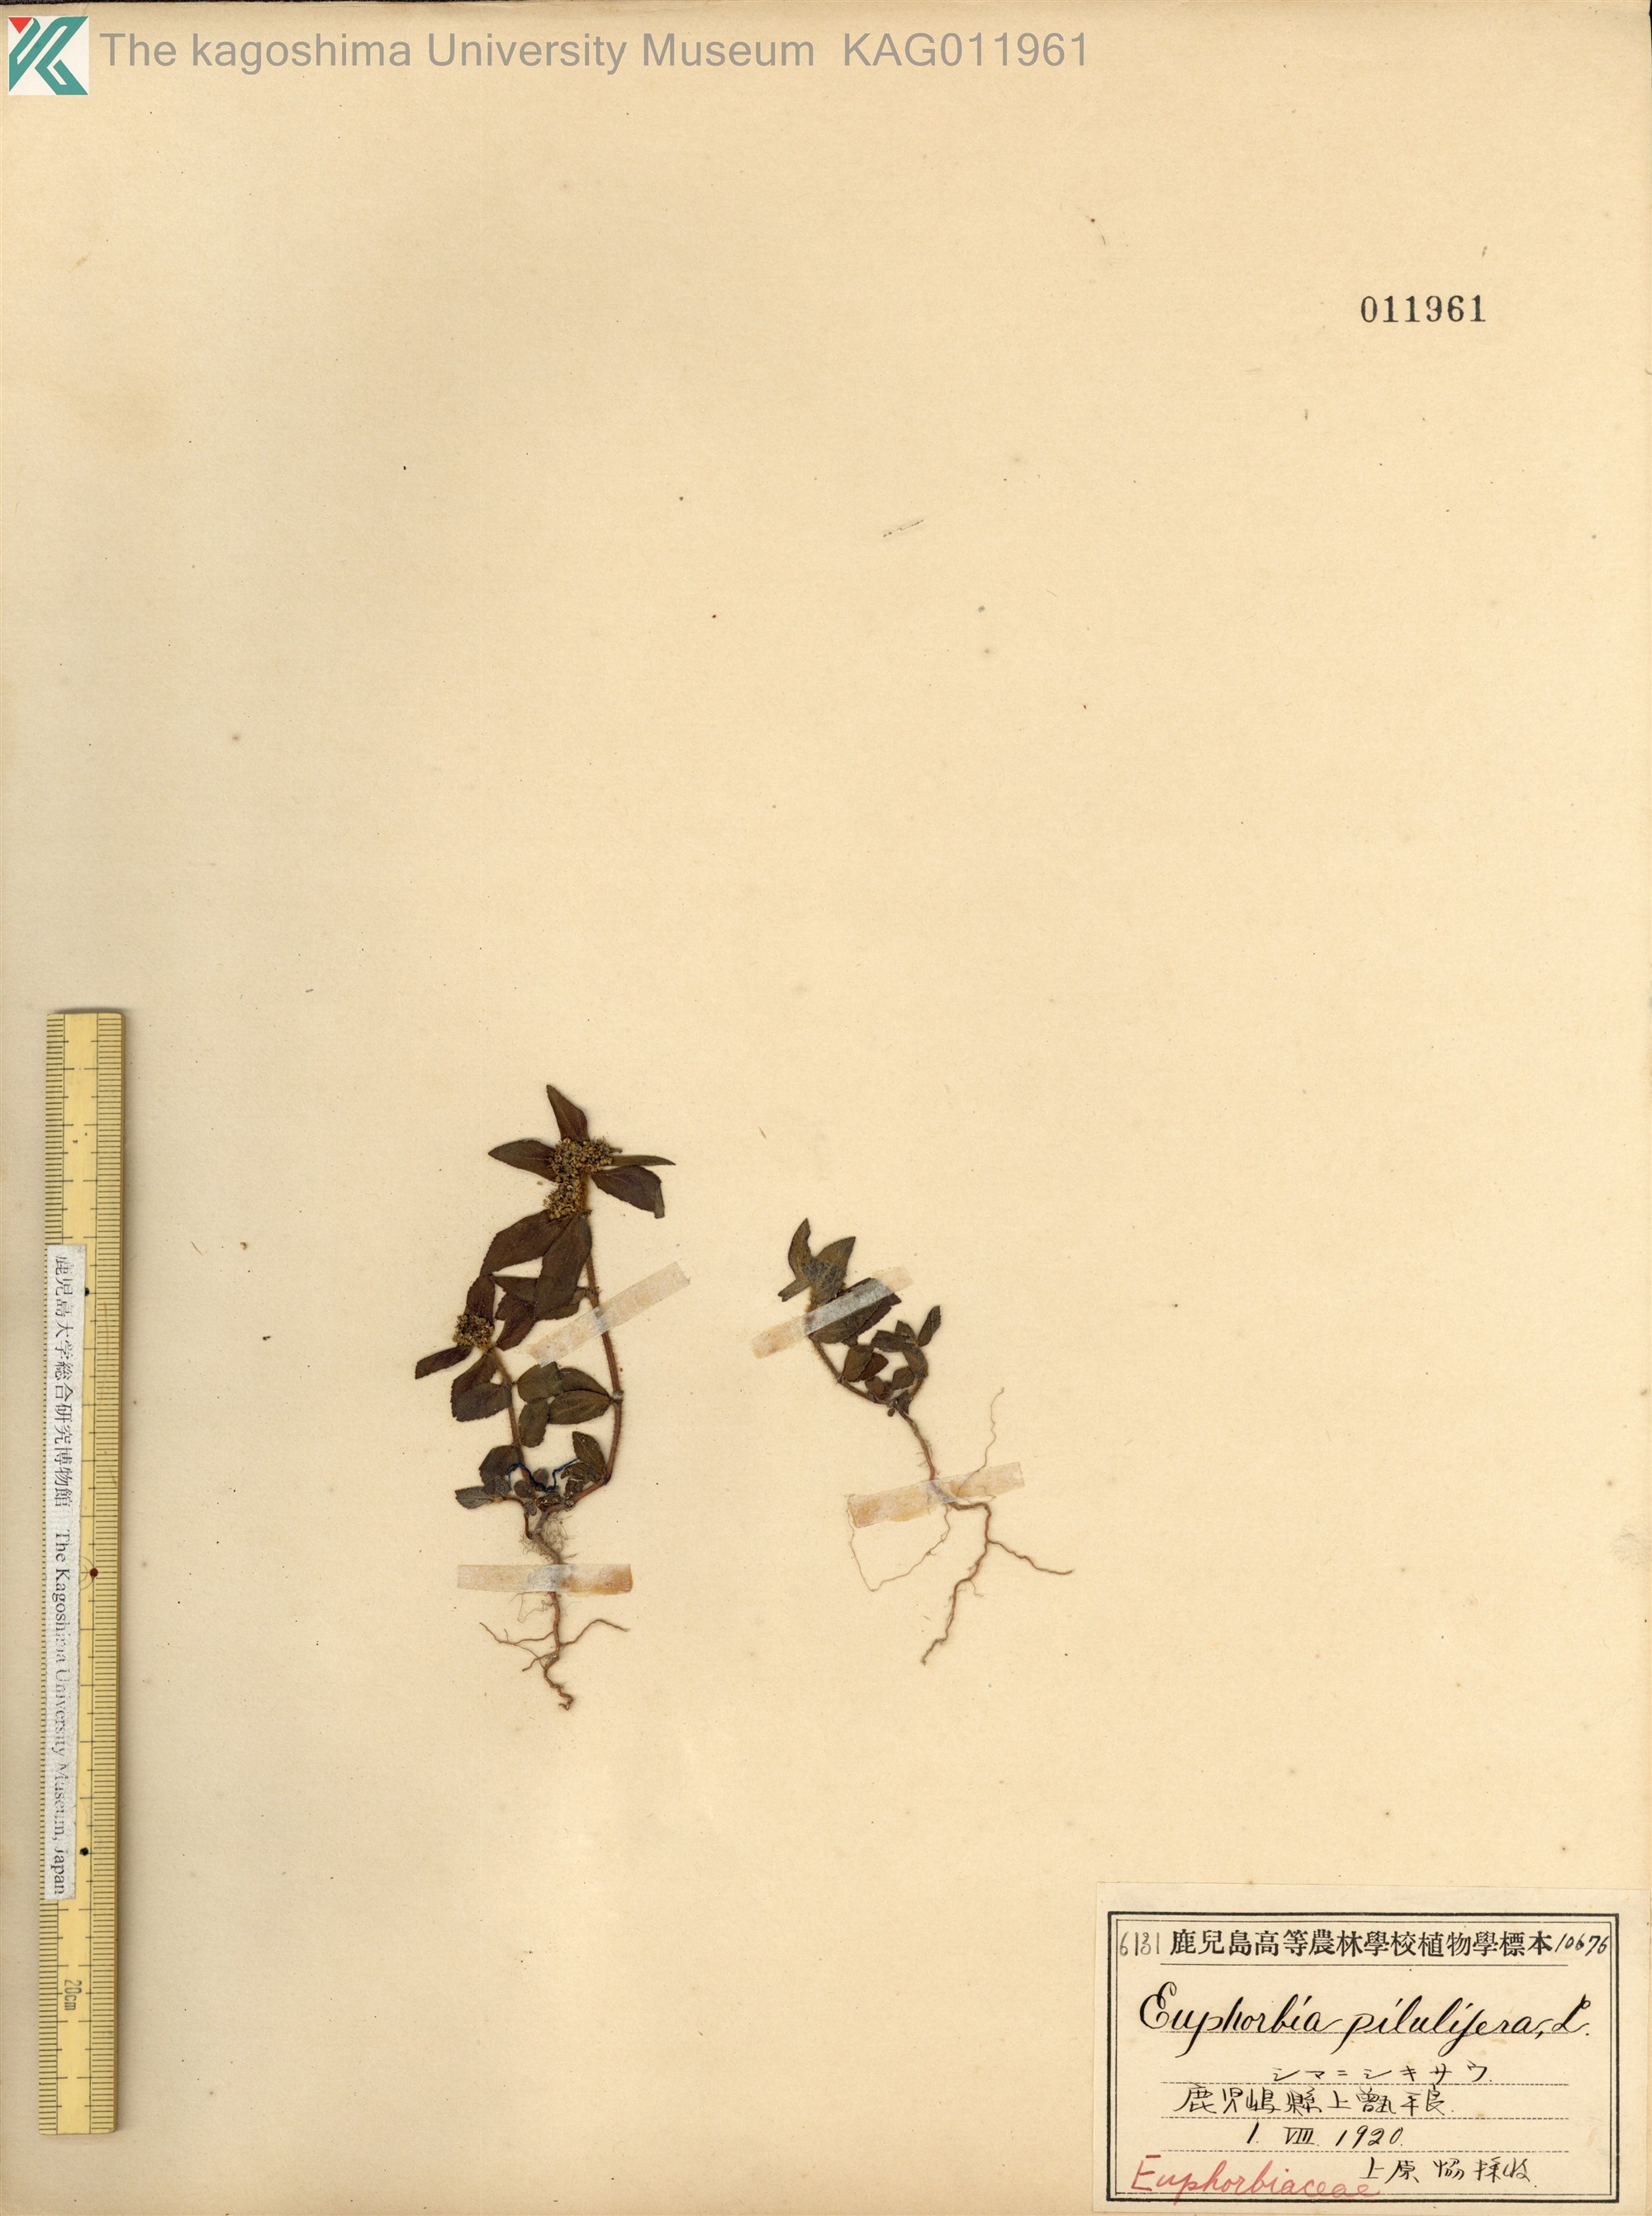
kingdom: Plantae
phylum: Tracheophyta
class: Magnoliopsida
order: Malpighiales
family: Euphorbiaceae
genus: Euphorbia
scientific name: Euphorbia hirta
